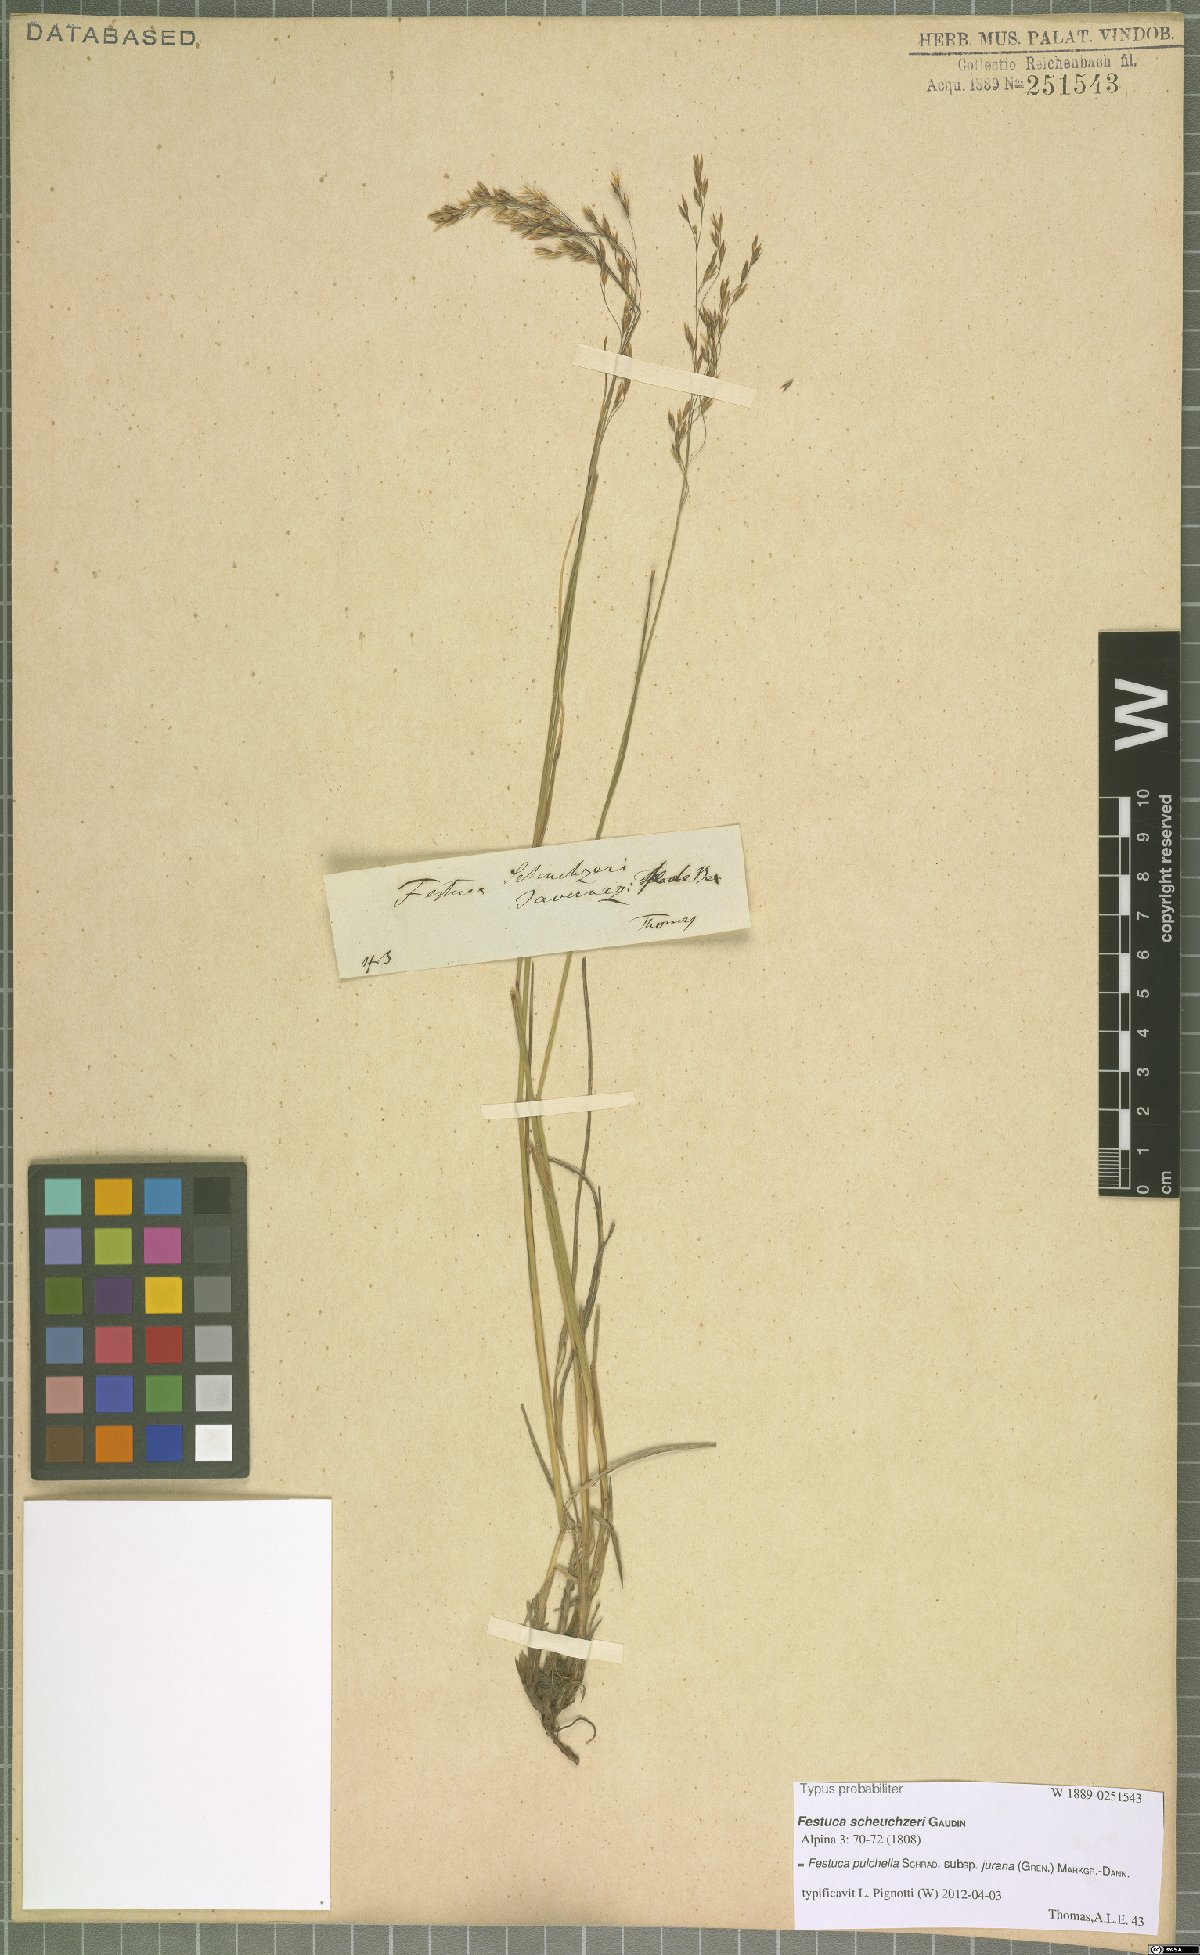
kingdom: Plantae
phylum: Tracheophyta
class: Liliopsida
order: Poales
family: Poaceae
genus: Festuca
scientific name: Festuca pulchella
